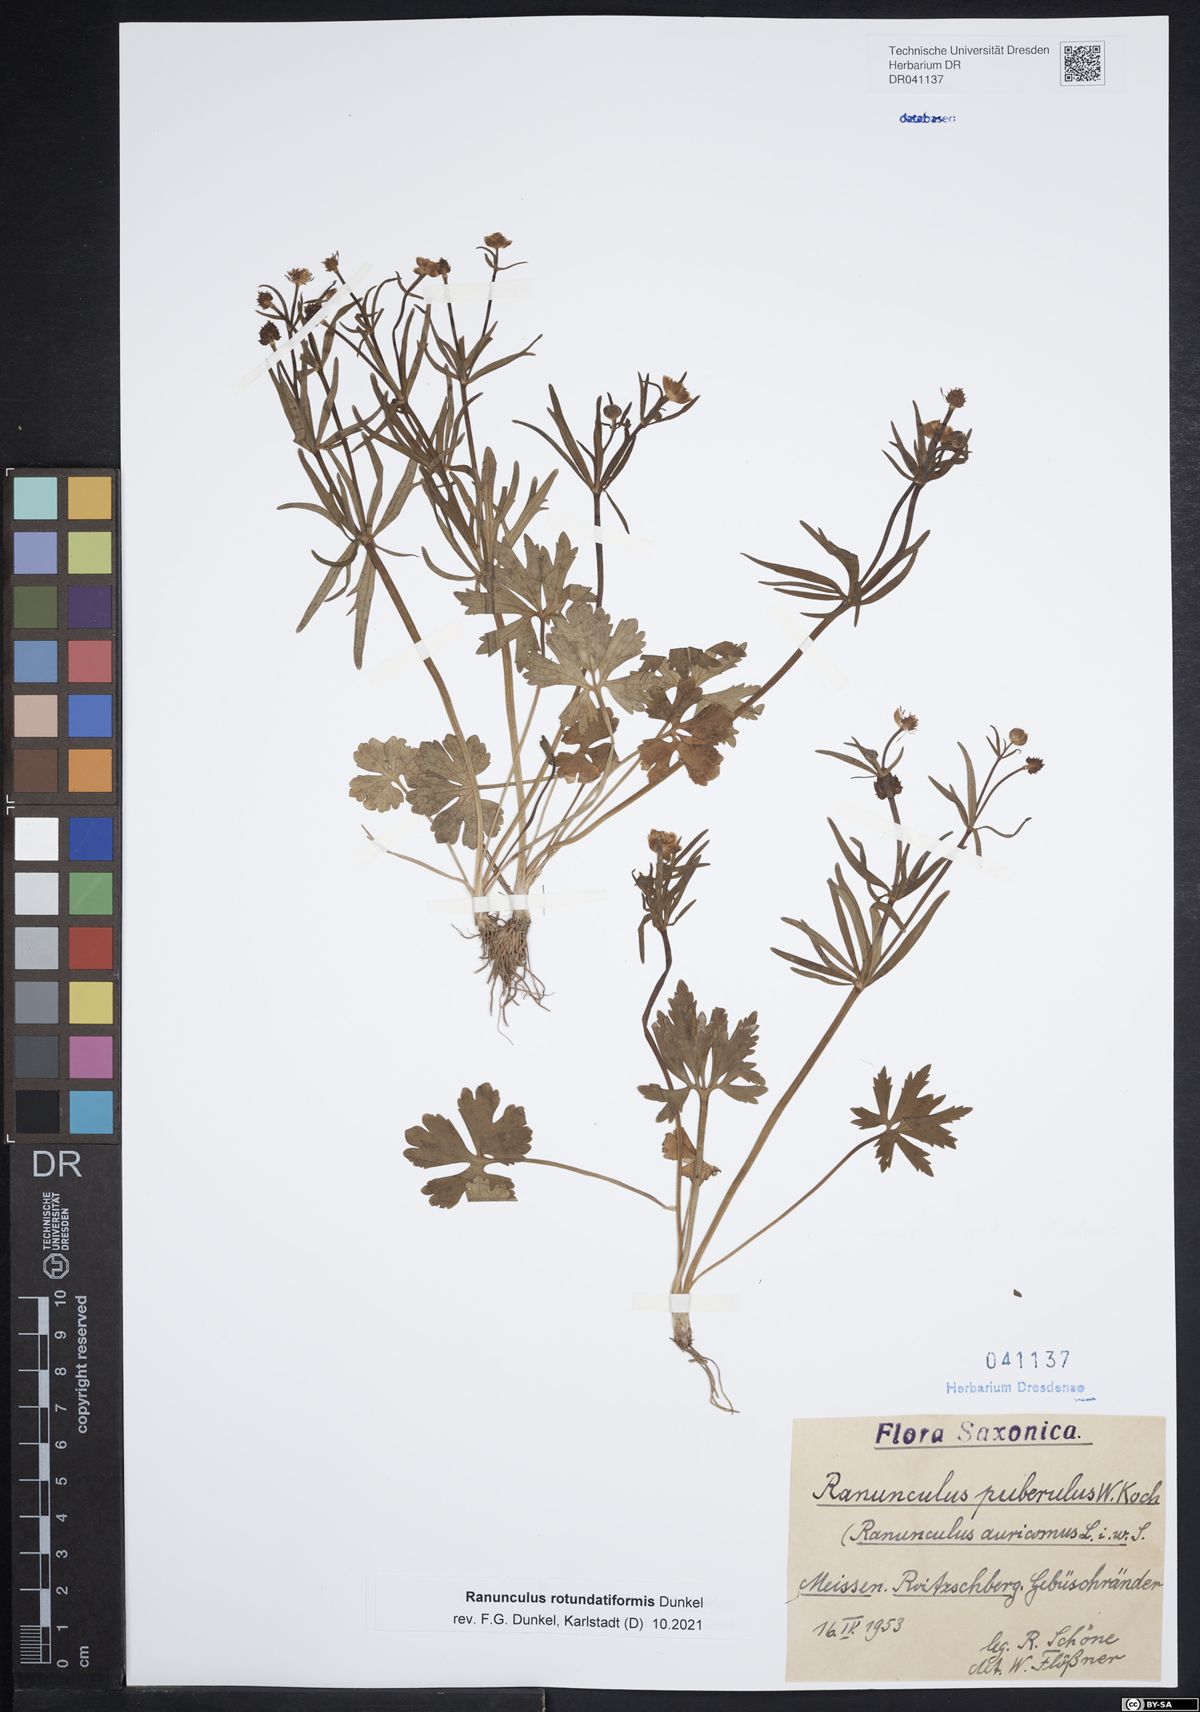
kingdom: Plantae
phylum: Tracheophyta
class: Magnoliopsida
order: Ranunculales
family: Ranunculaceae
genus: Ranunculus
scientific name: Ranunculus rotundatiformis
